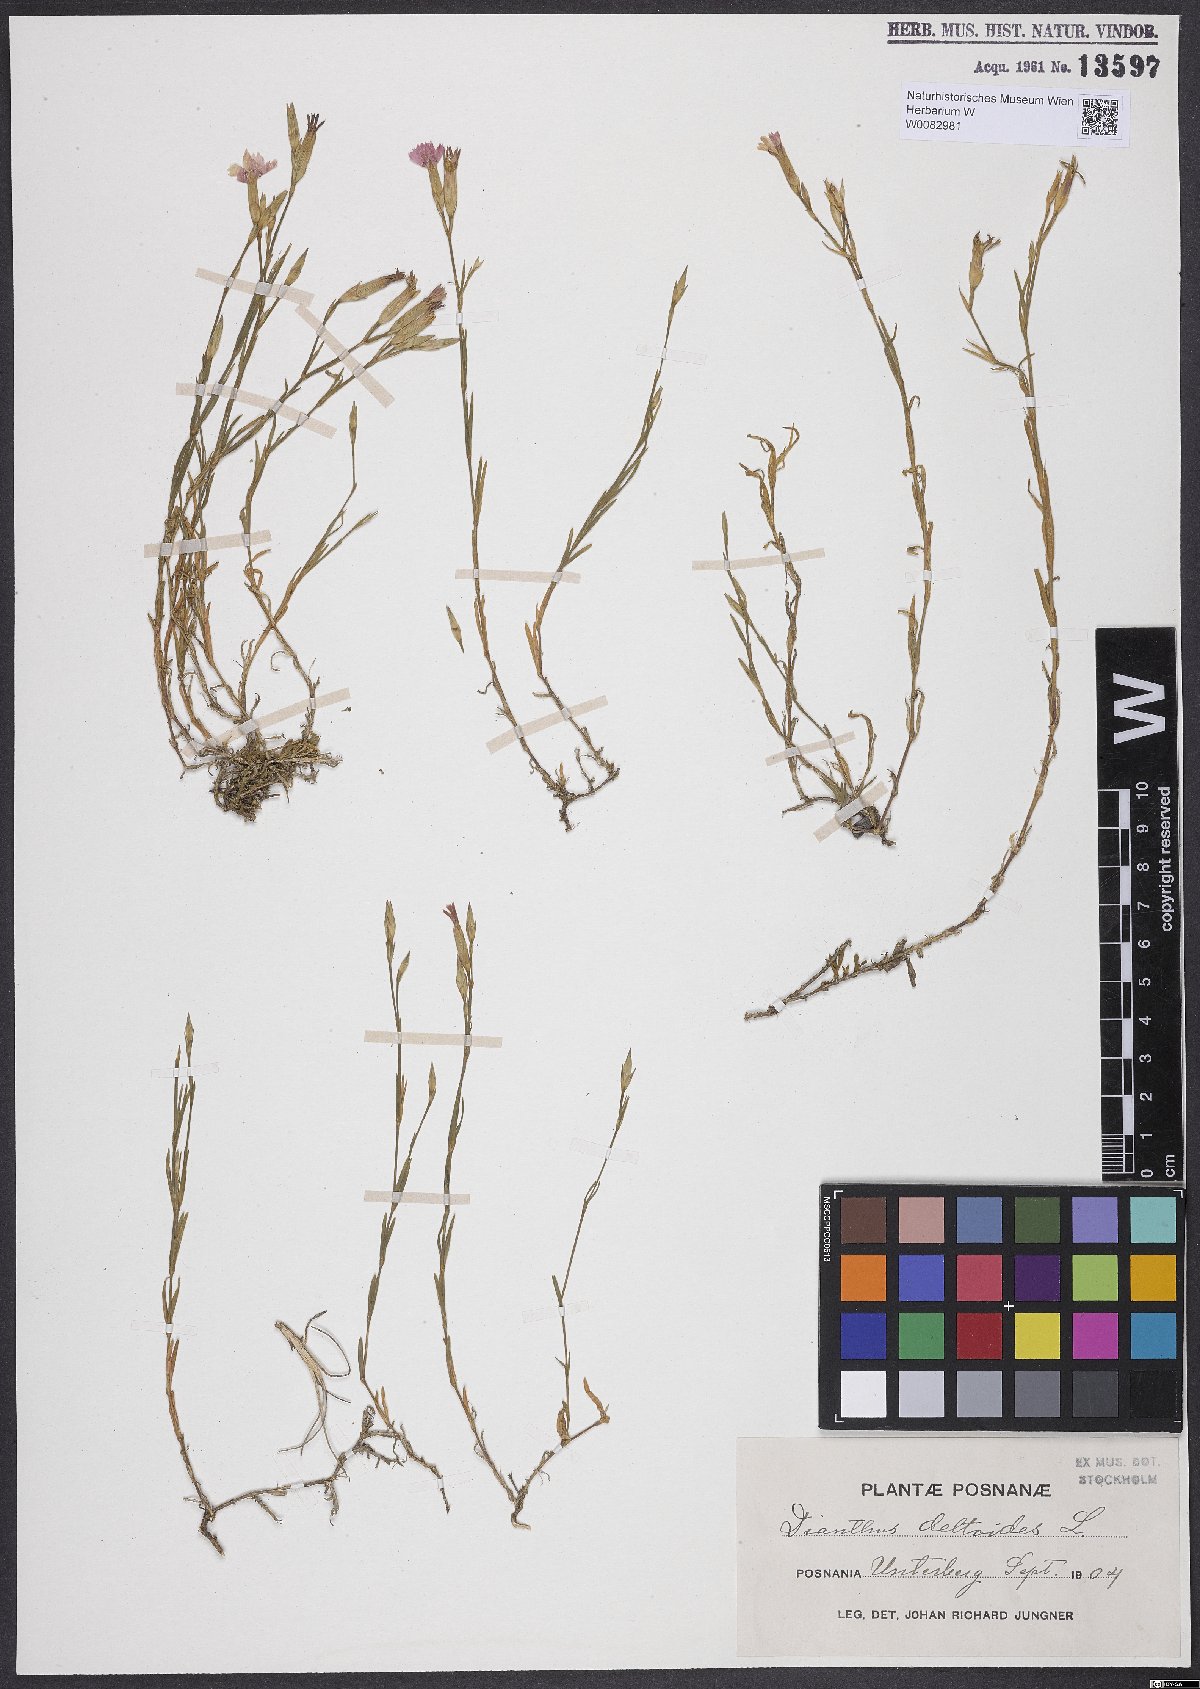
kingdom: Plantae
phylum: Tracheophyta
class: Magnoliopsida
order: Caryophyllales
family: Caryophyllaceae
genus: Dianthus
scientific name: Dianthus deltoides
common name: Maiden pink
